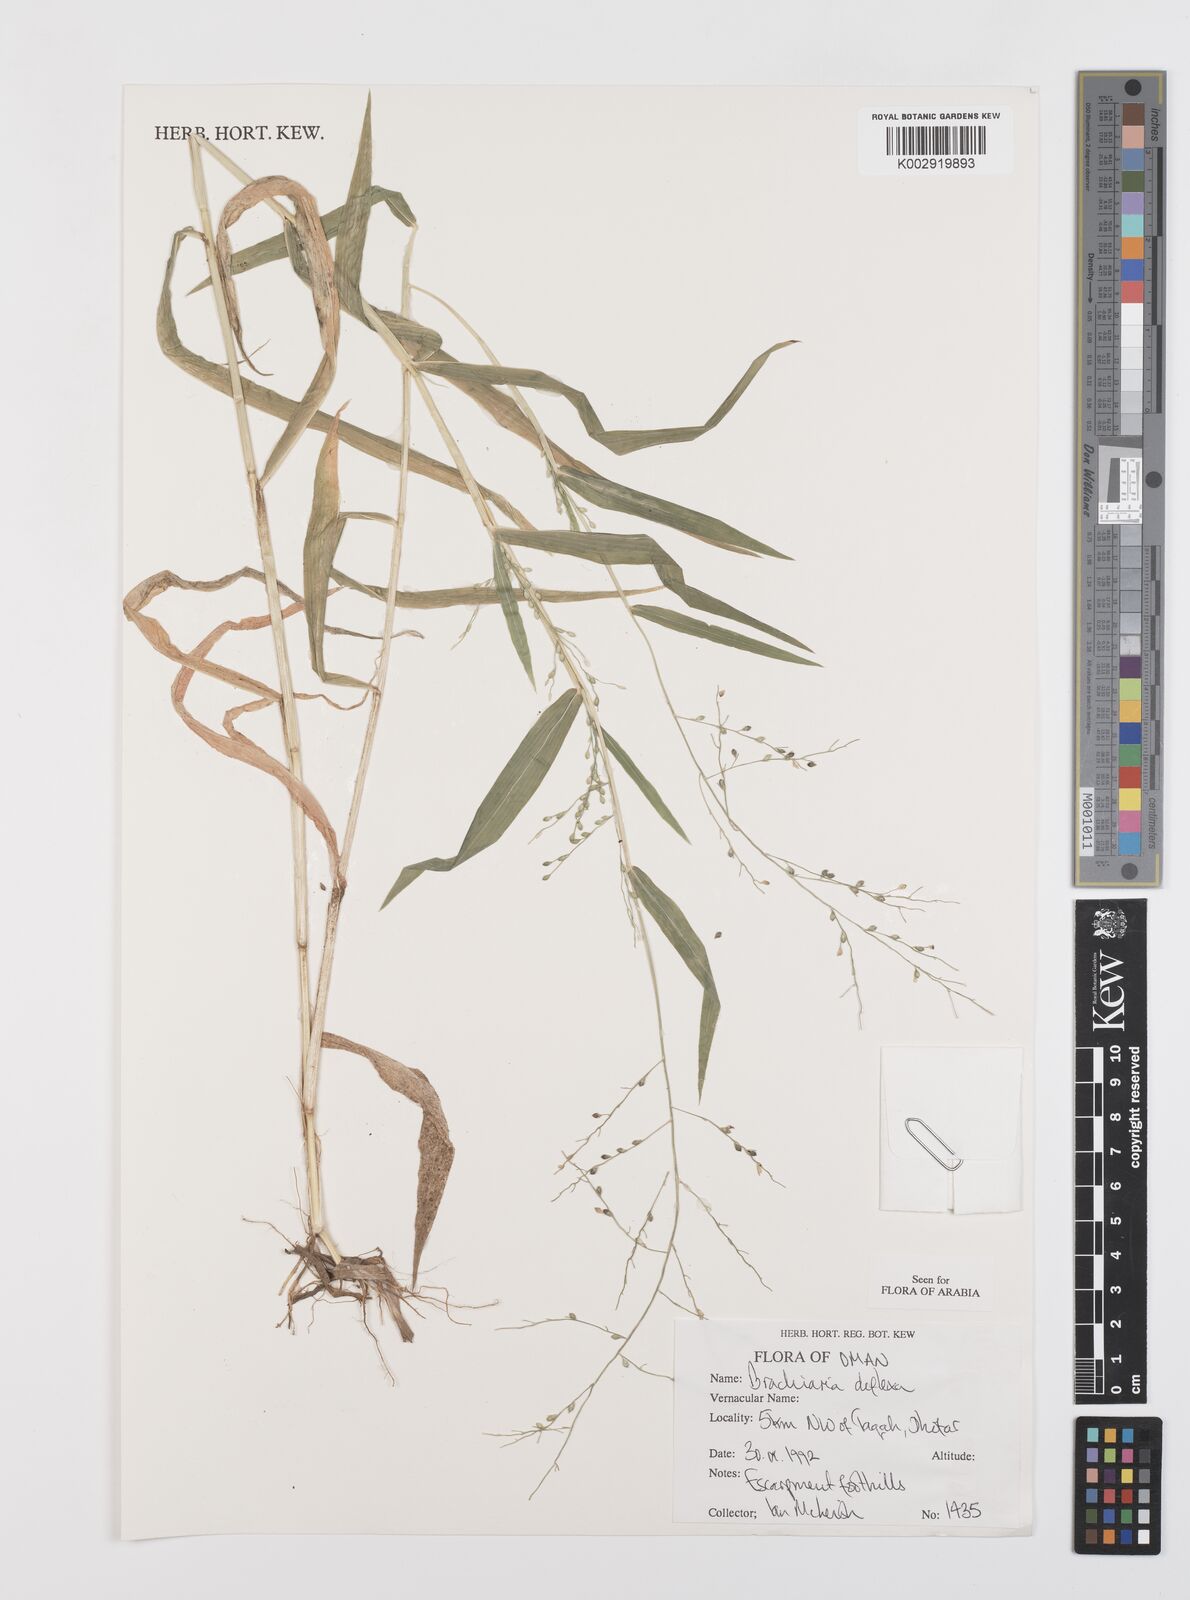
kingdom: Plantae
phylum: Tracheophyta
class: Liliopsida
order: Poales
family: Poaceae
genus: Urochloa
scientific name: Urochloa deflexa
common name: Guinea millet
